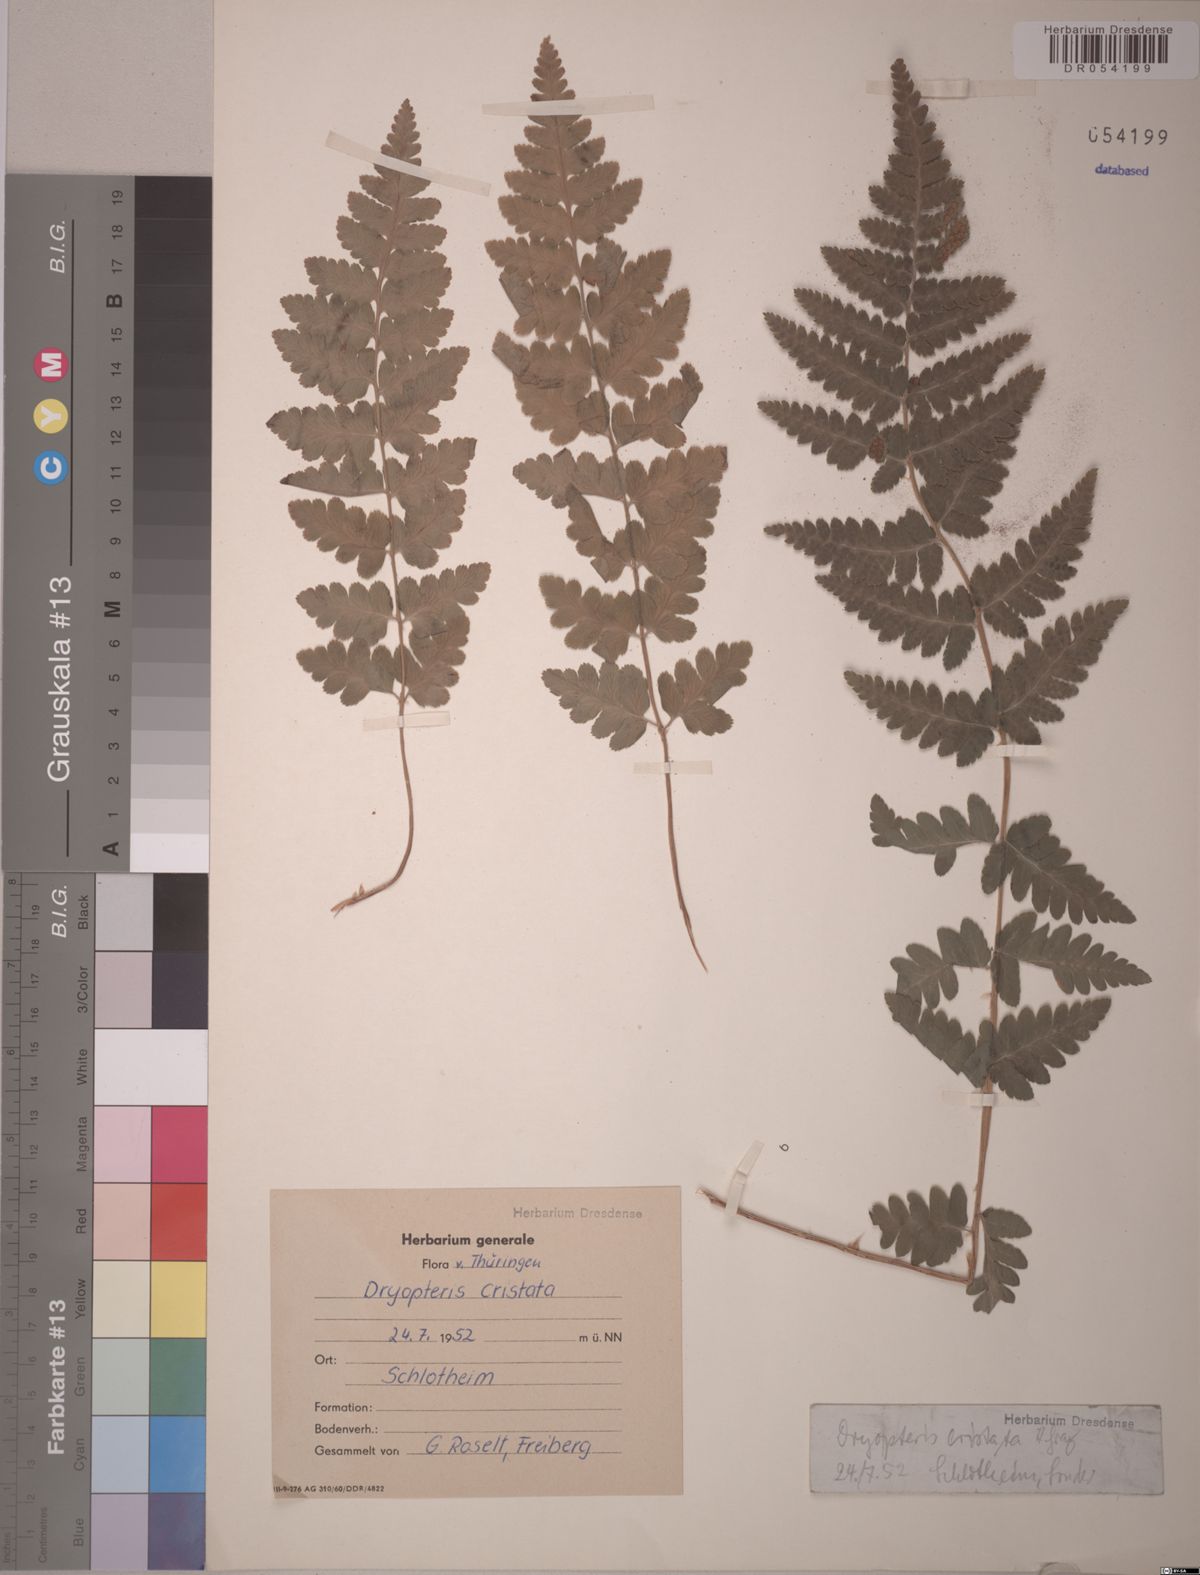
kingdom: Plantae
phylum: Tracheophyta
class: Polypodiopsida
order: Polypodiales
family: Dryopteridaceae
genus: Dryopteris
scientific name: Dryopteris cristata
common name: Crested wood fern
